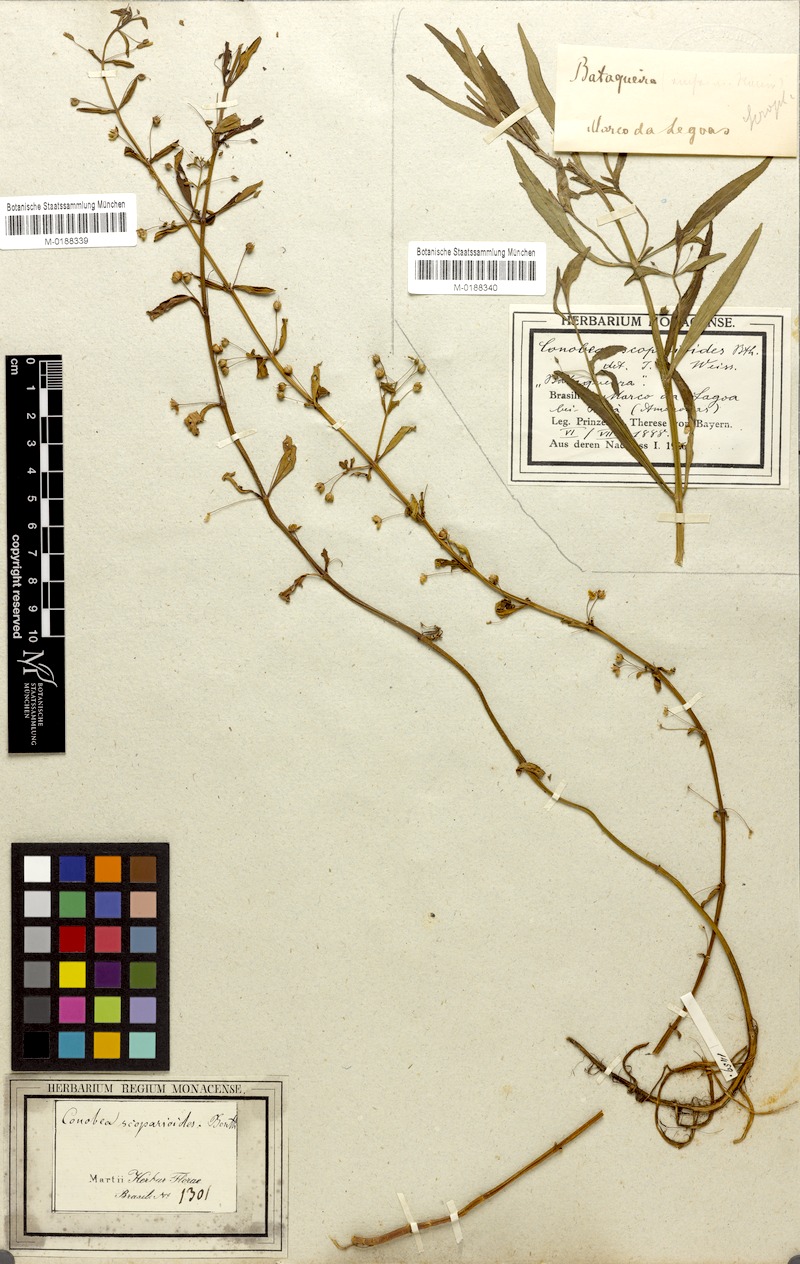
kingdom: Plantae
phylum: Tracheophyta
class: Magnoliopsida
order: Lamiales
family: Plantaginaceae
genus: Conobea
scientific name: Conobea scoparioides
